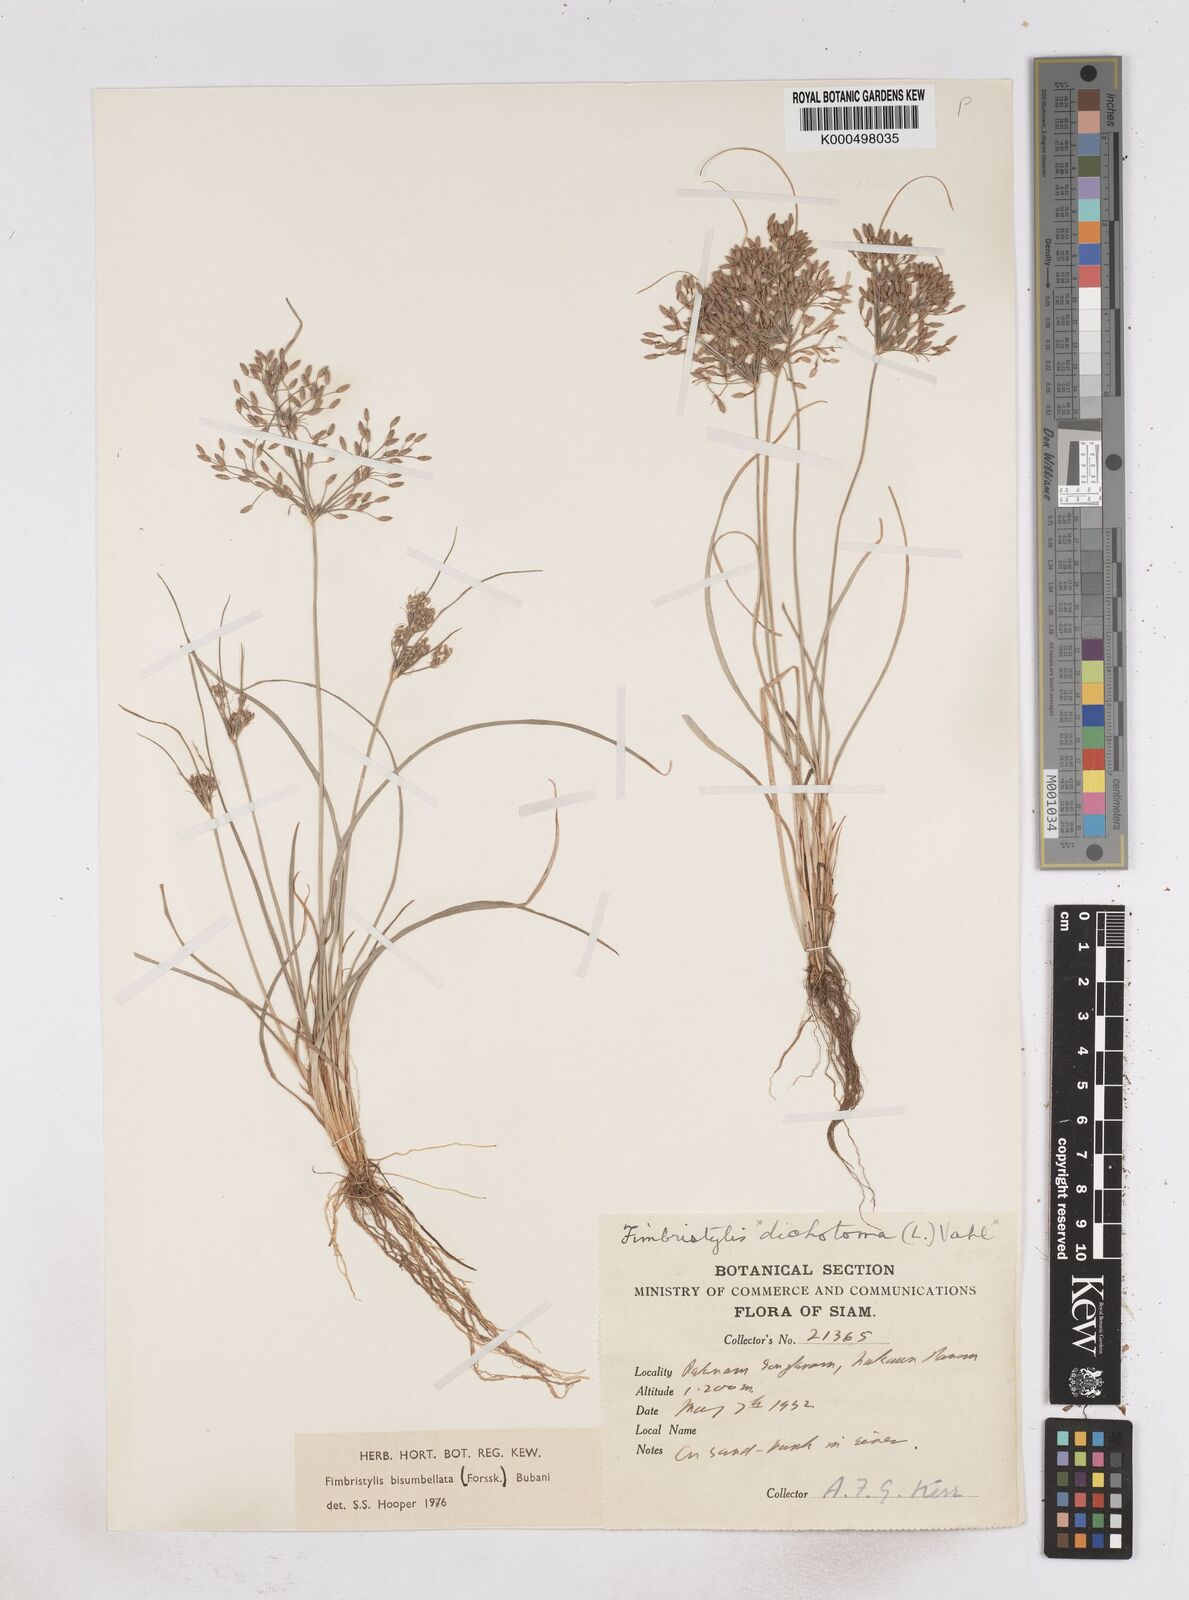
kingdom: Plantae
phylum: Tracheophyta
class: Liliopsida
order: Poales
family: Cyperaceae
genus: Fimbristylis
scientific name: Fimbristylis bisumbellata
